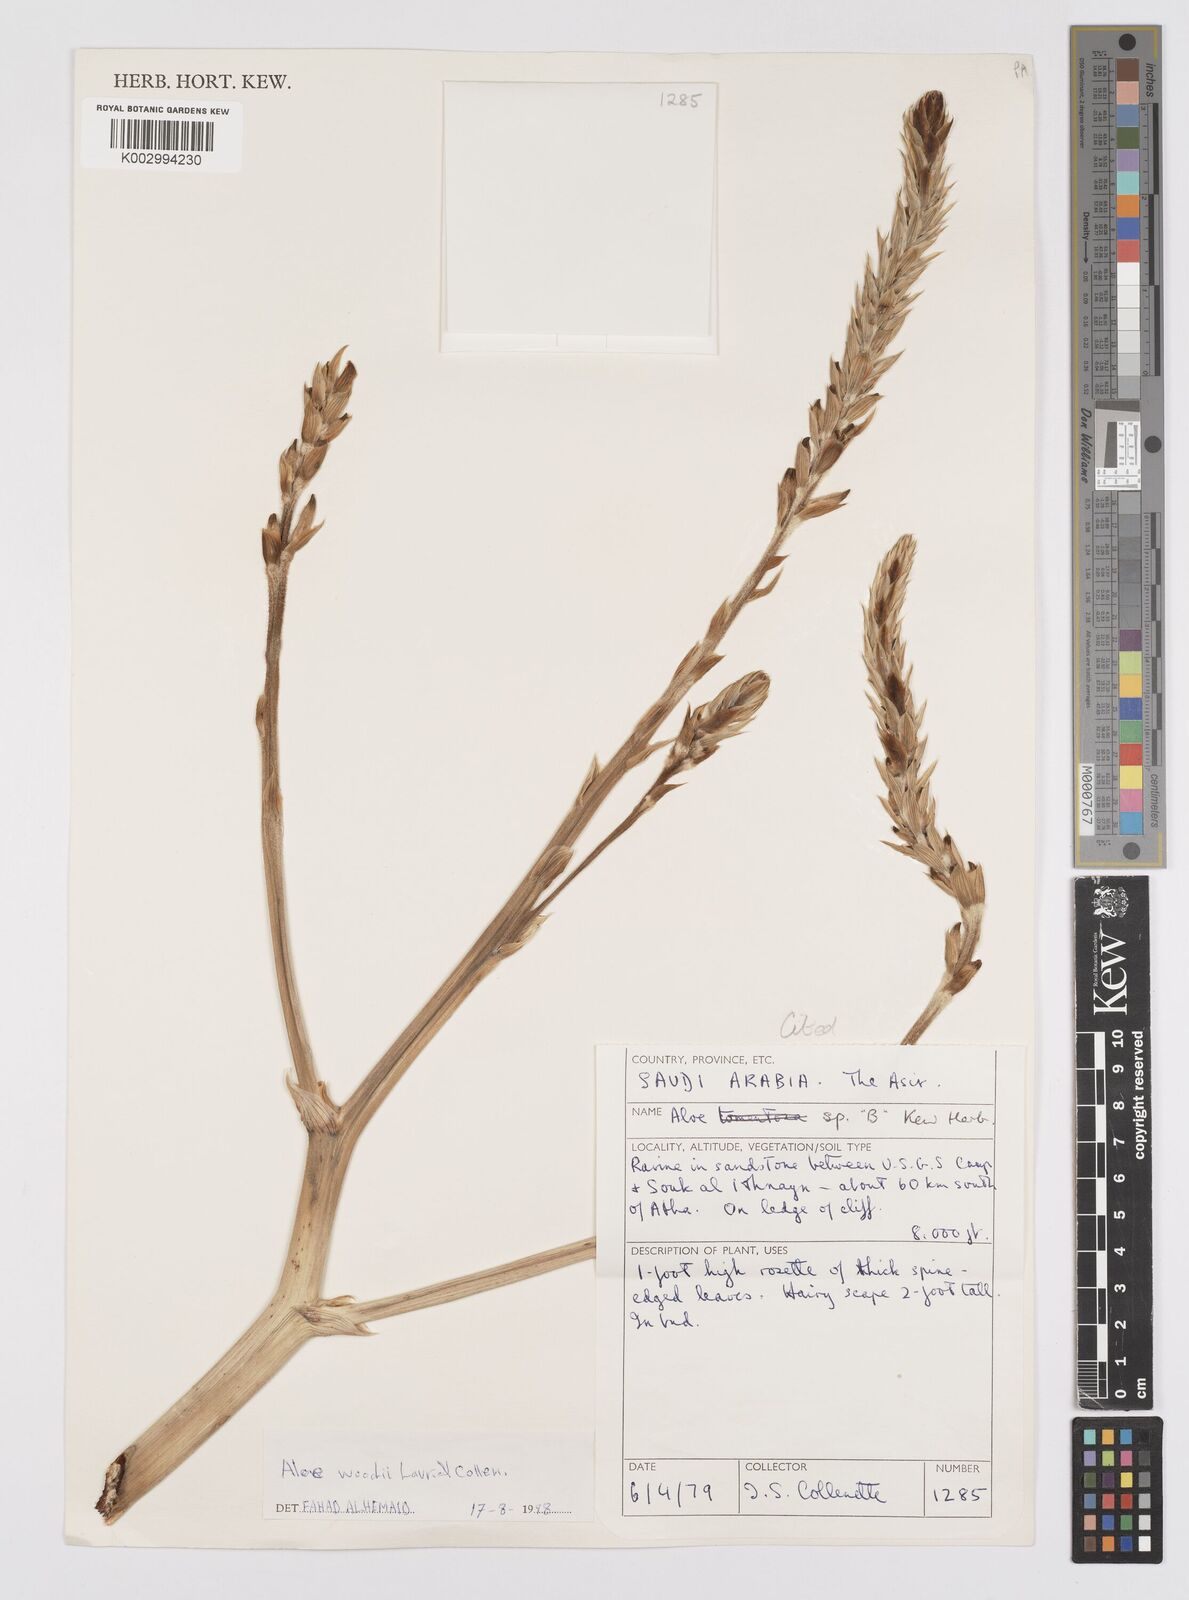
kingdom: Plantae
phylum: Tracheophyta
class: Liliopsida
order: Asparagales
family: Asphodelaceae
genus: Aloe
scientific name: Aloe woodii
